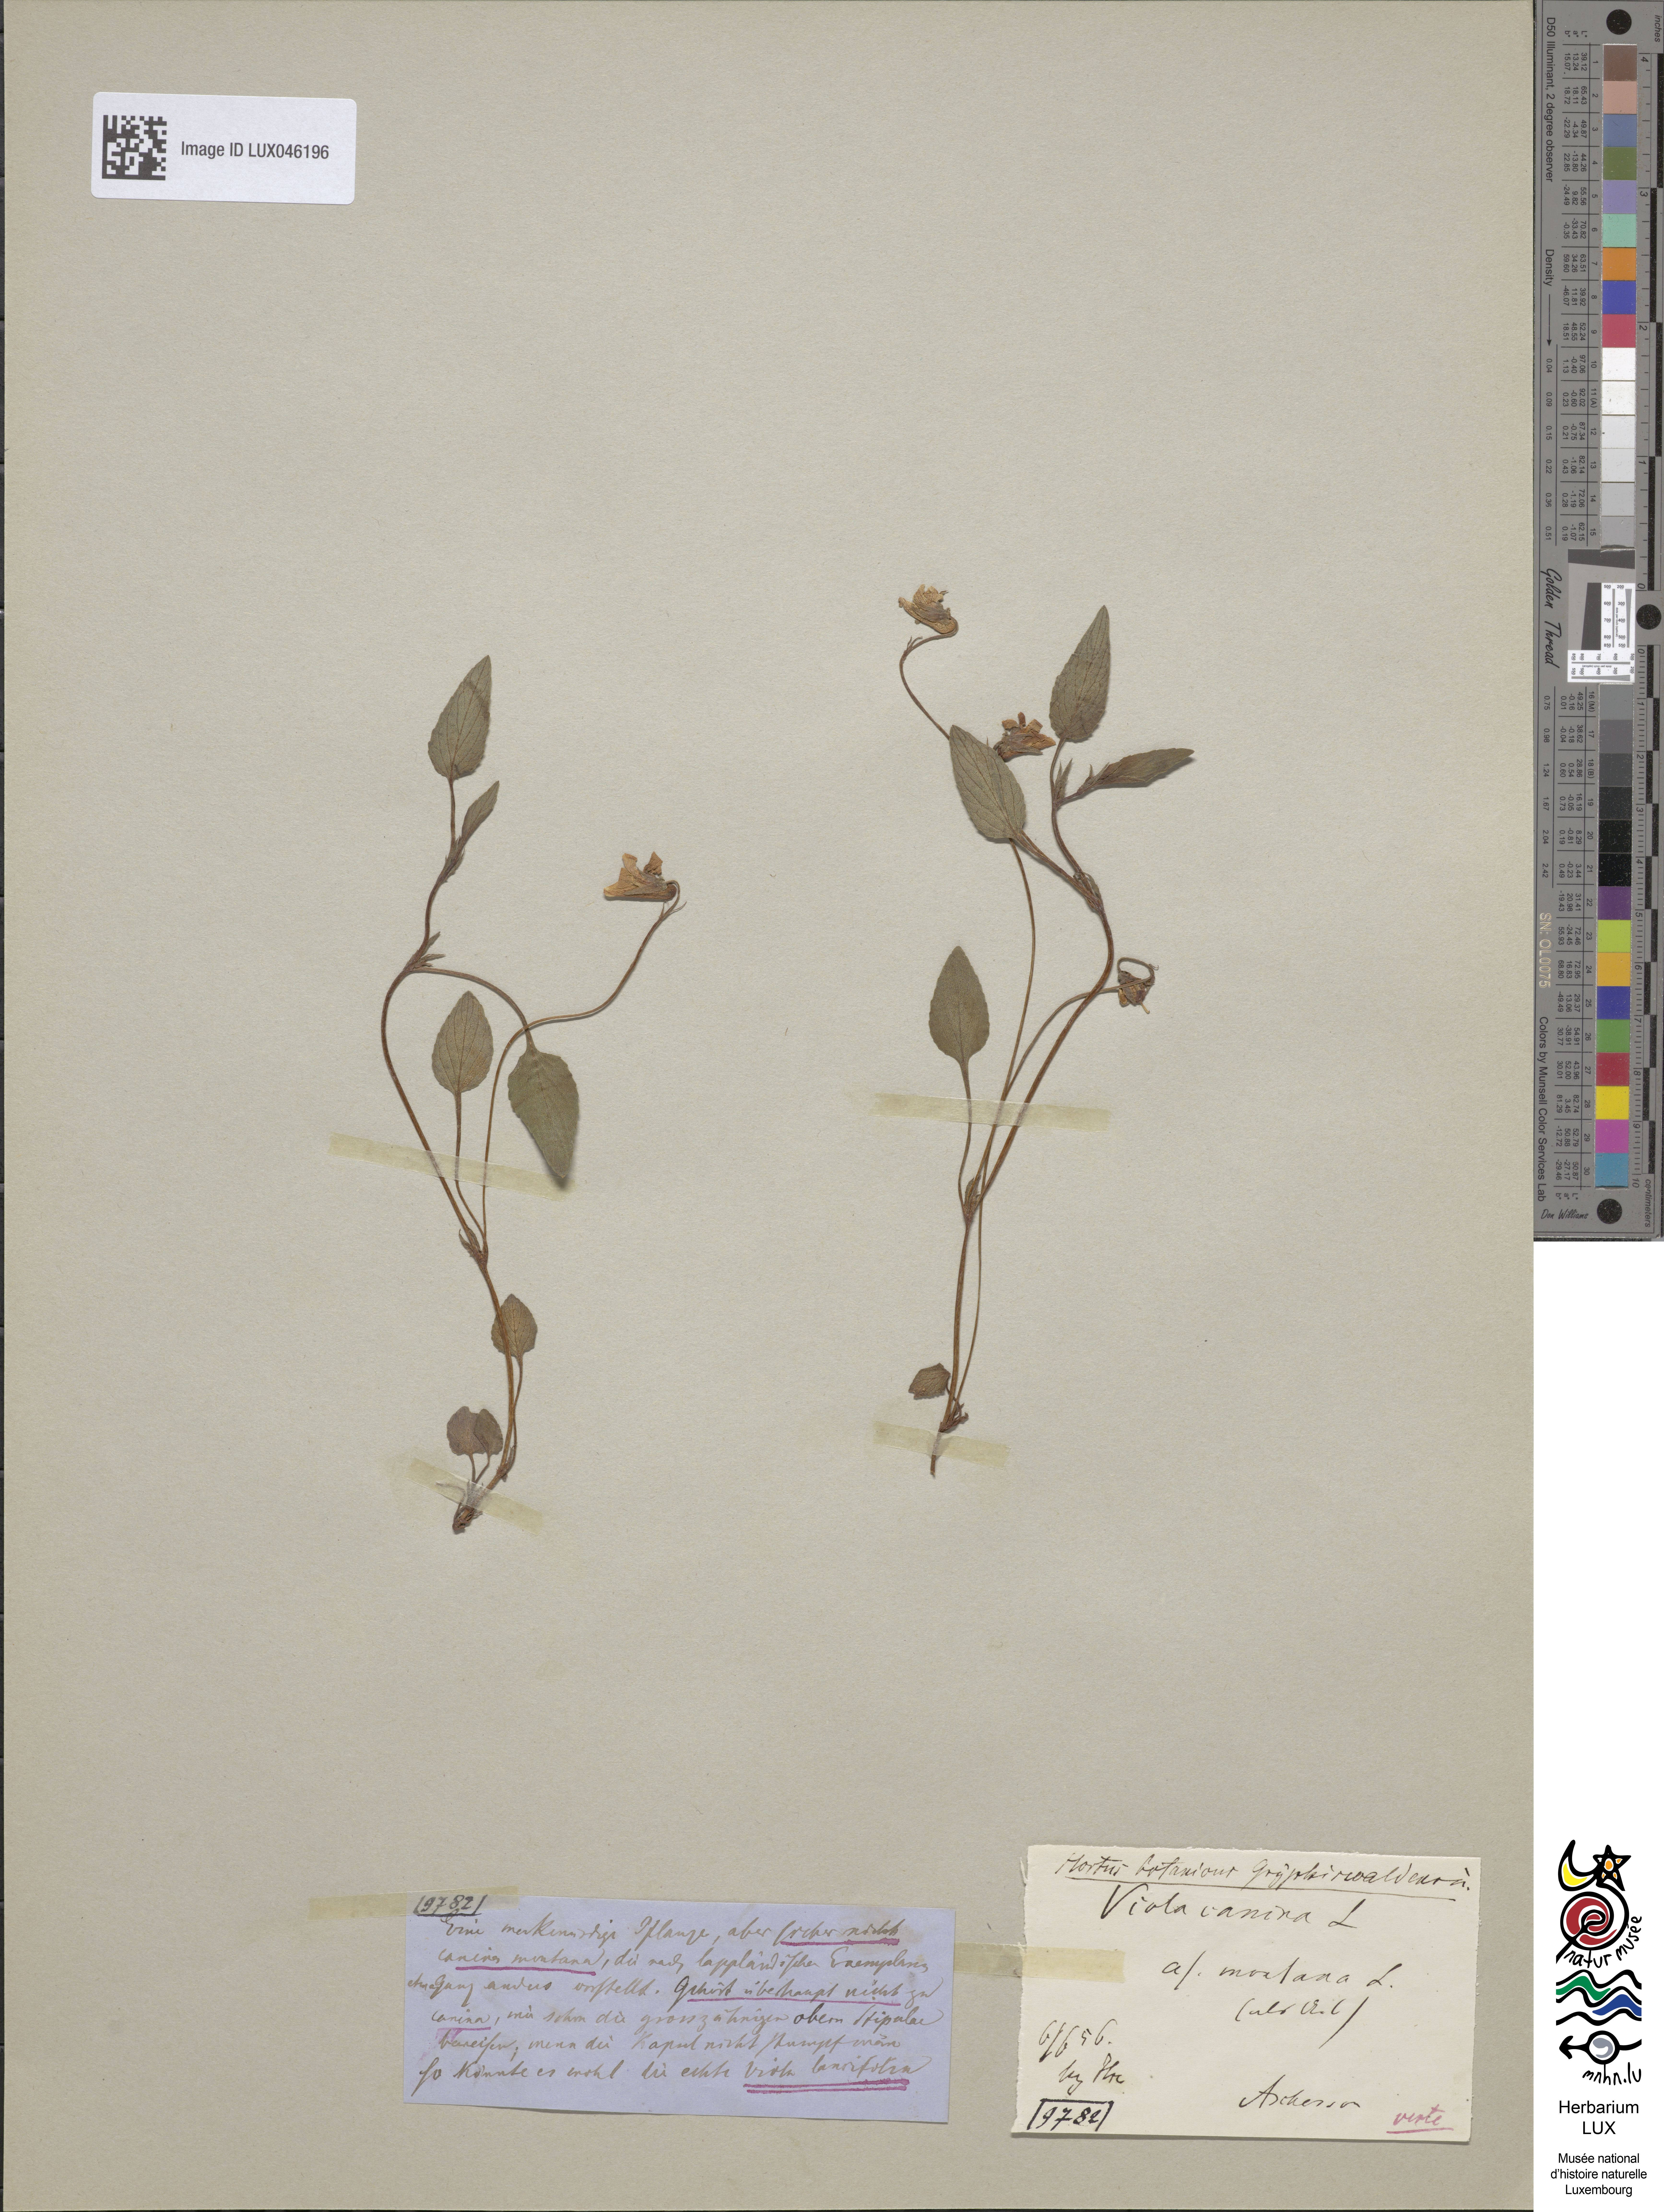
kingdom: Plantae
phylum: Tracheophyta
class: Magnoliopsida
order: Malpighiales
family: Violaceae
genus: Viola
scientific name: Viola ruppii
